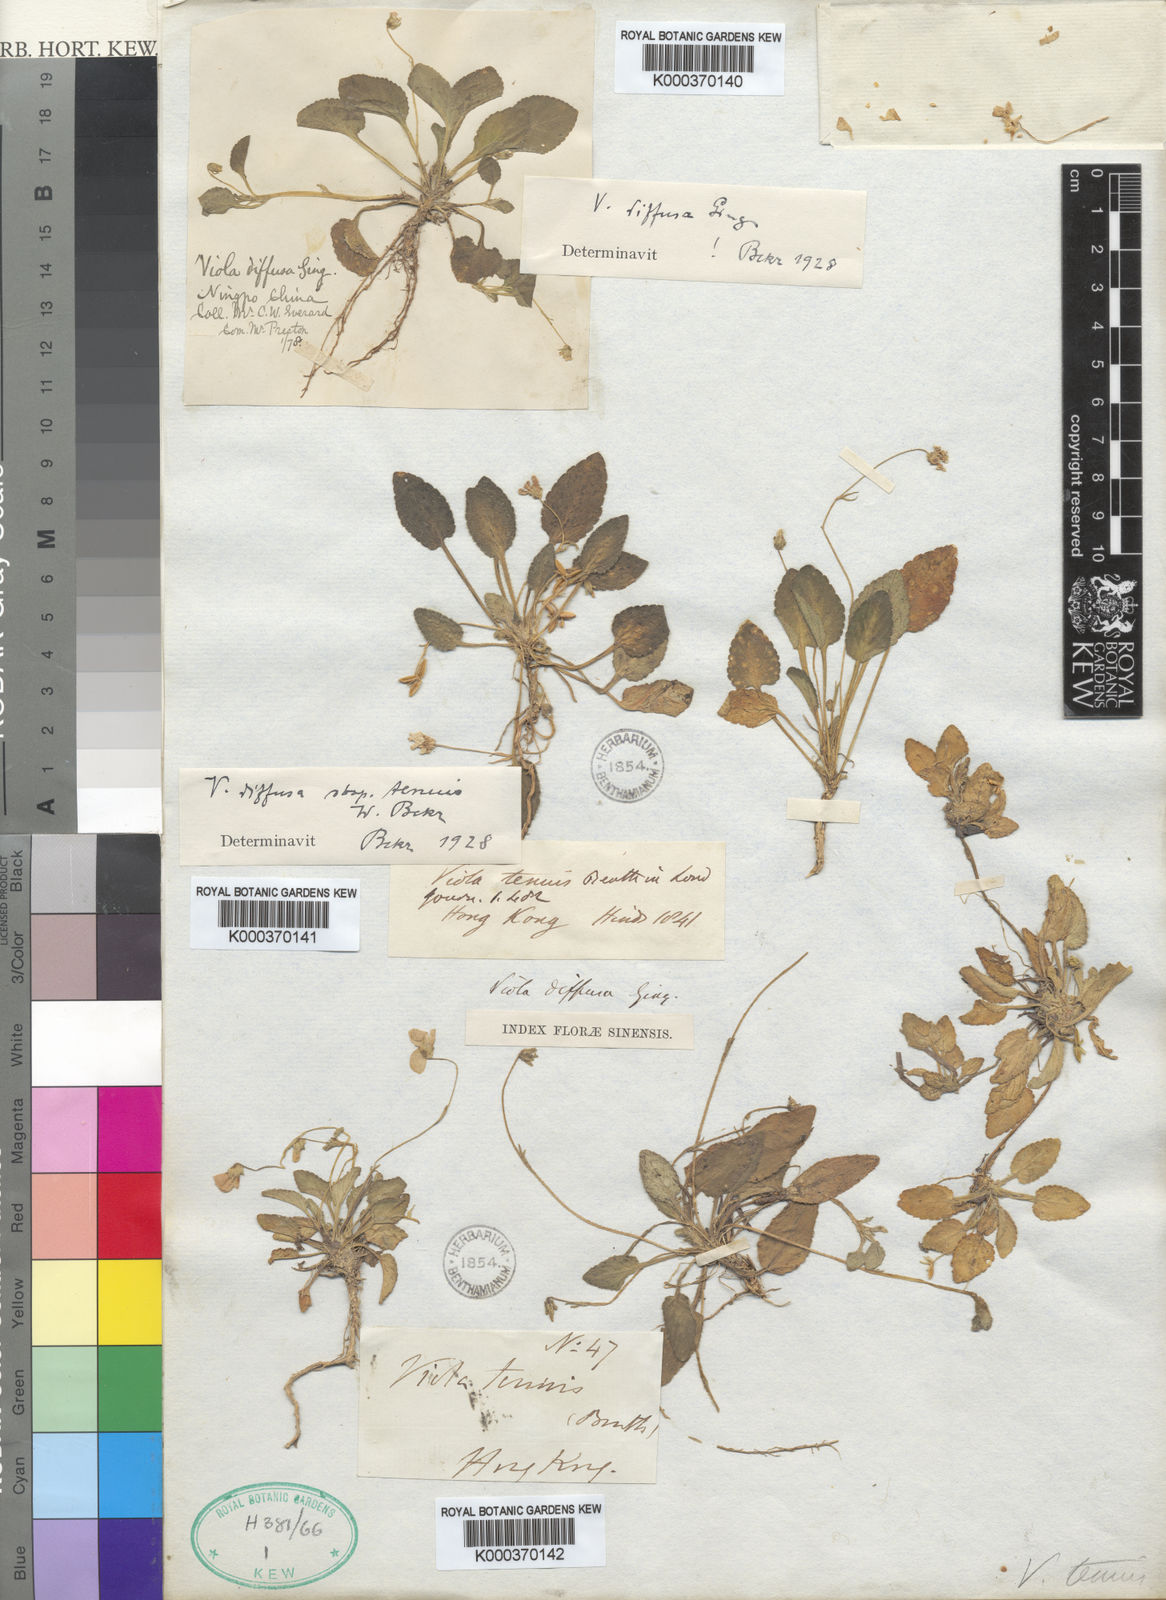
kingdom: Plantae
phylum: Tracheophyta
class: Magnoliopsida
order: Malpighiales
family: Violaceae
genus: Viola
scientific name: Viola diffusa
